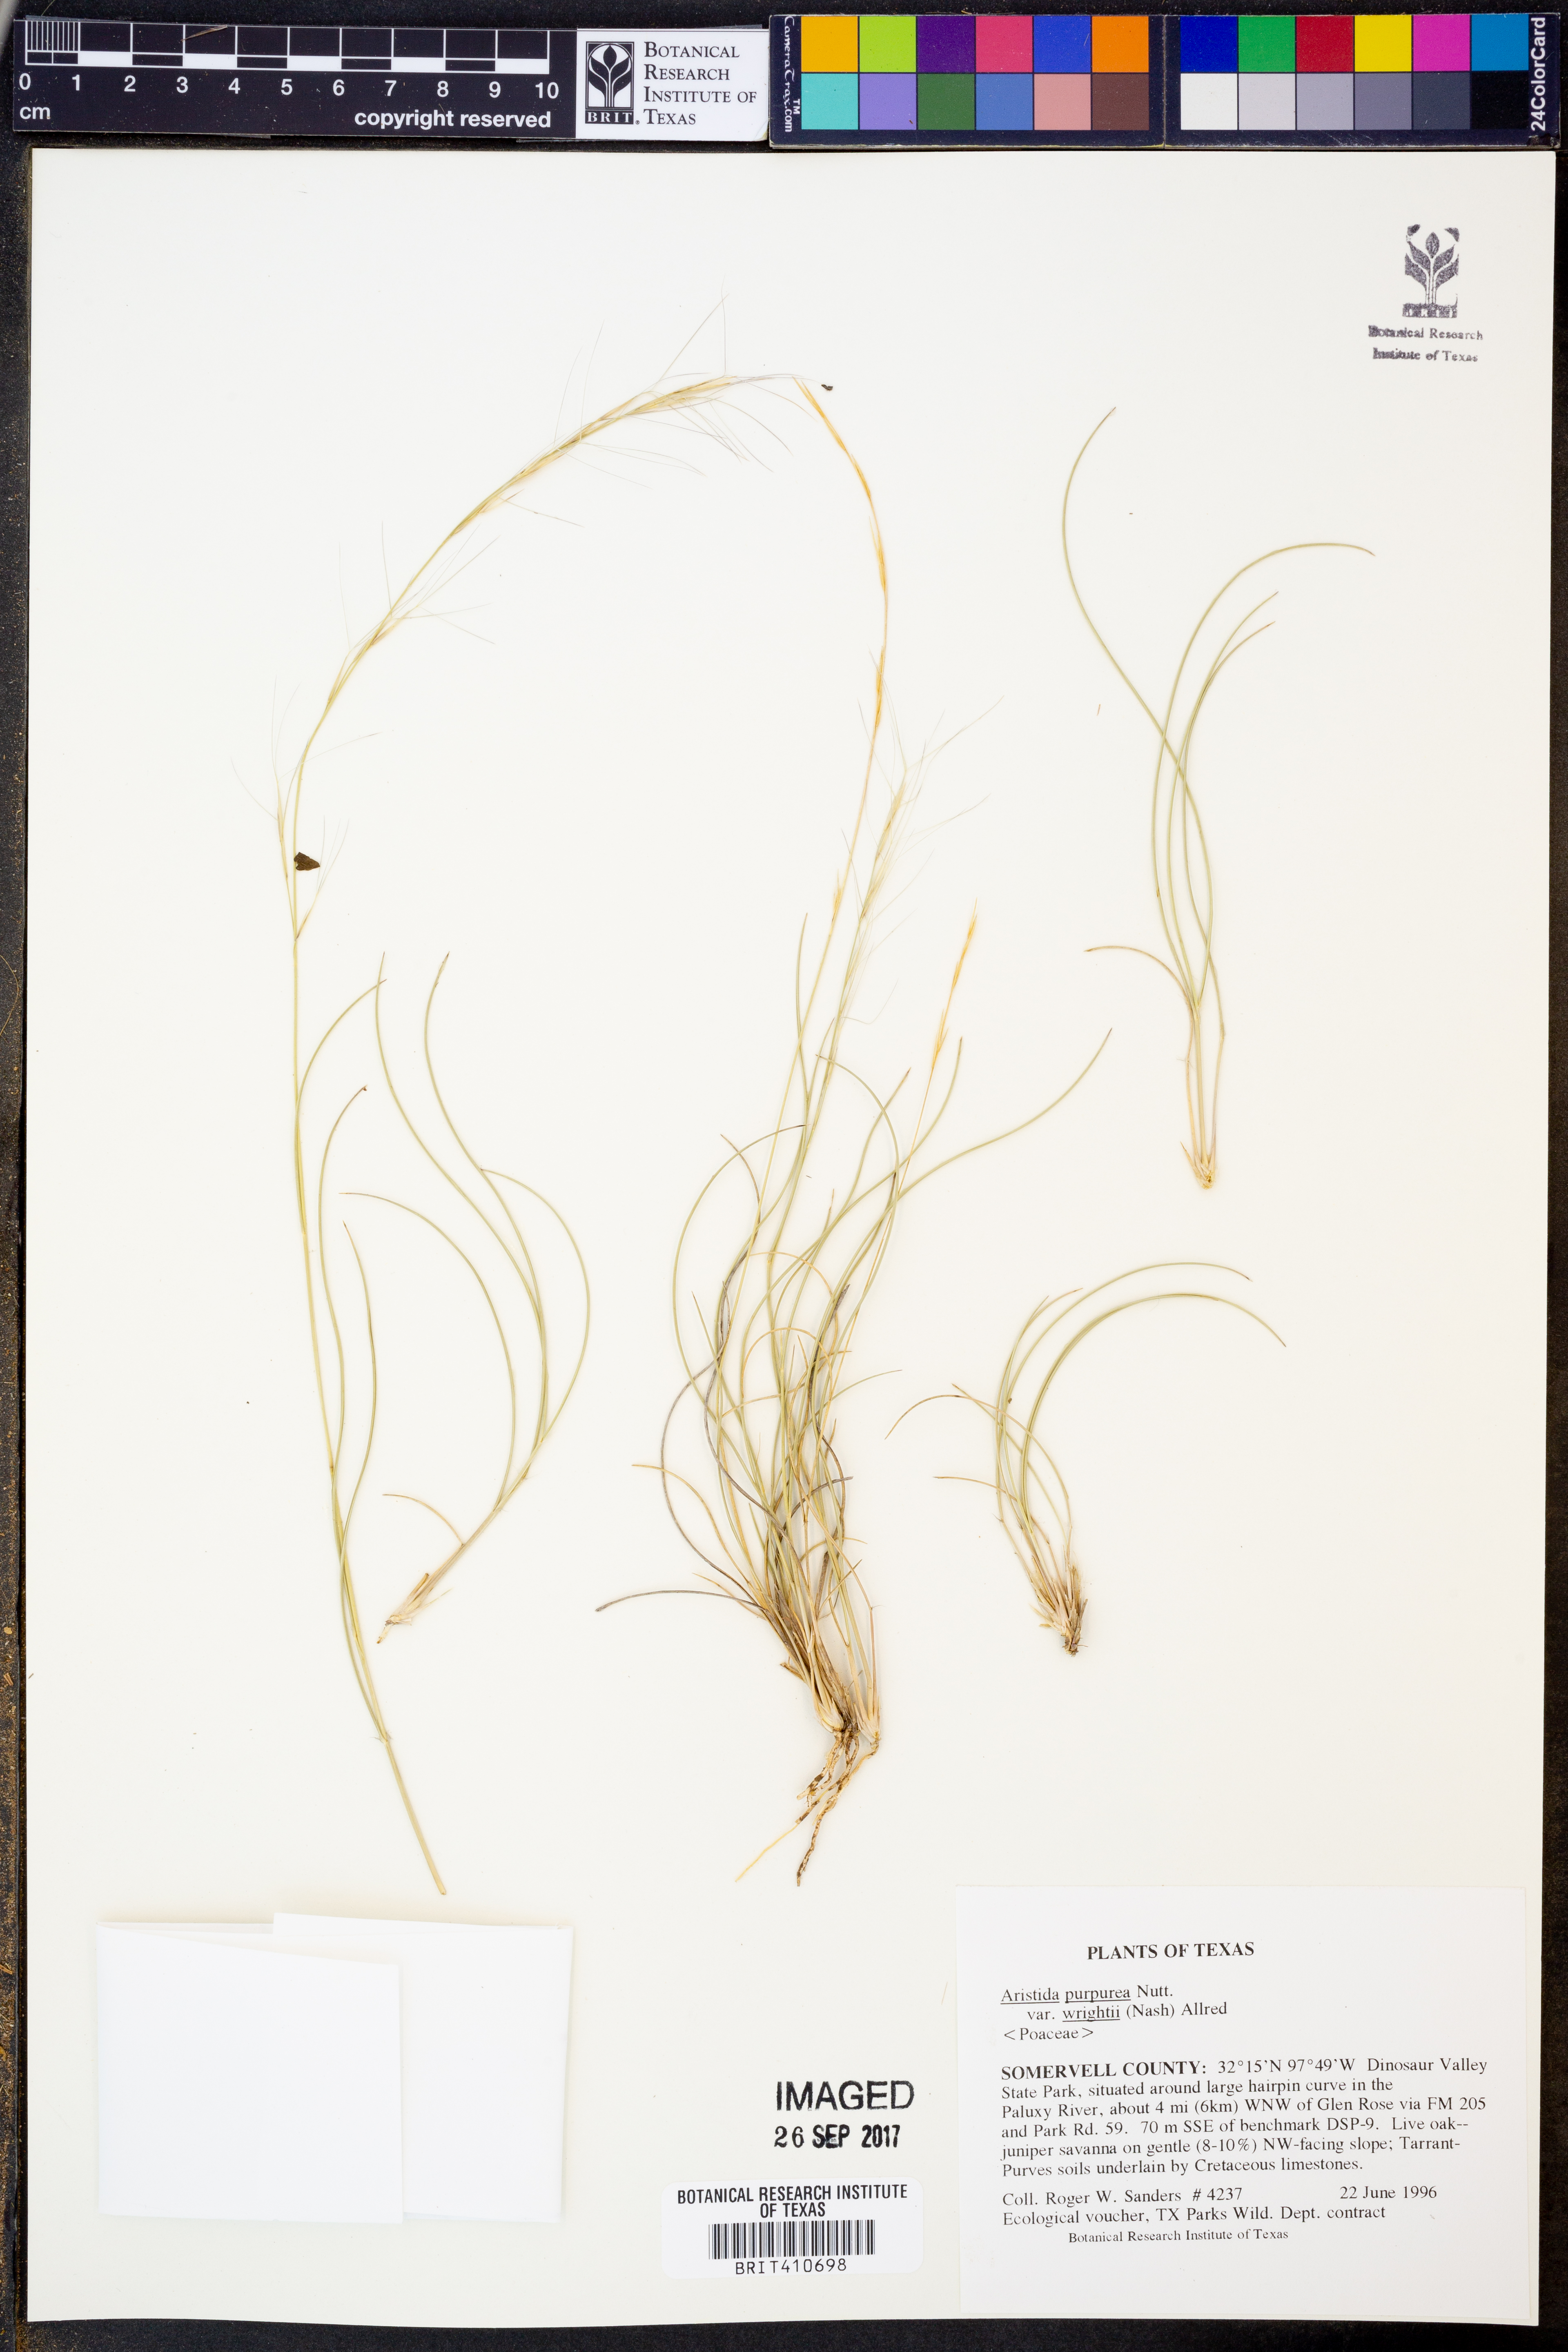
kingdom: Plantae
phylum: Tracheophyta
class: Liliopsida
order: Poales
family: Poaceae
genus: Aristida
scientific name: Aristida wrightii
